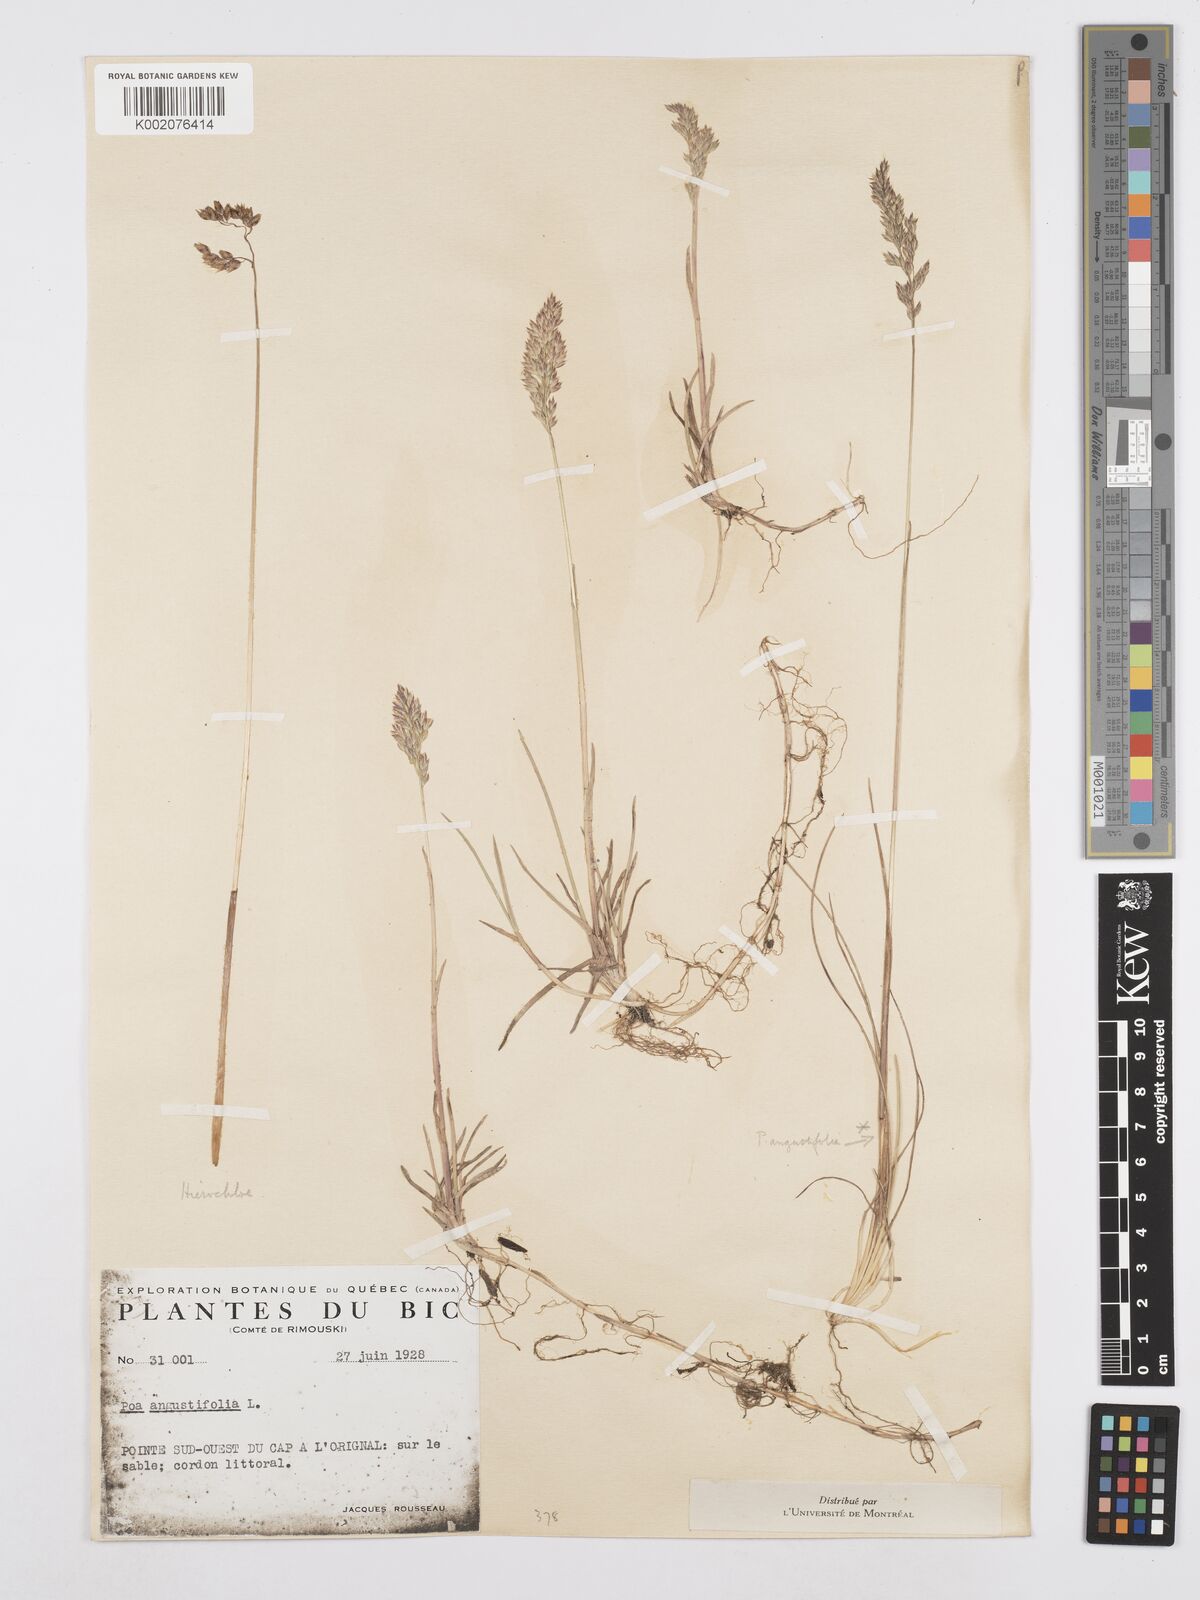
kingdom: Plantae
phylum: Tracheophyta
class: Liliopsida
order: Poales
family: Poaceae
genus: Poa
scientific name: Poa angustifolia
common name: Narrow-leaved meadow-grass
